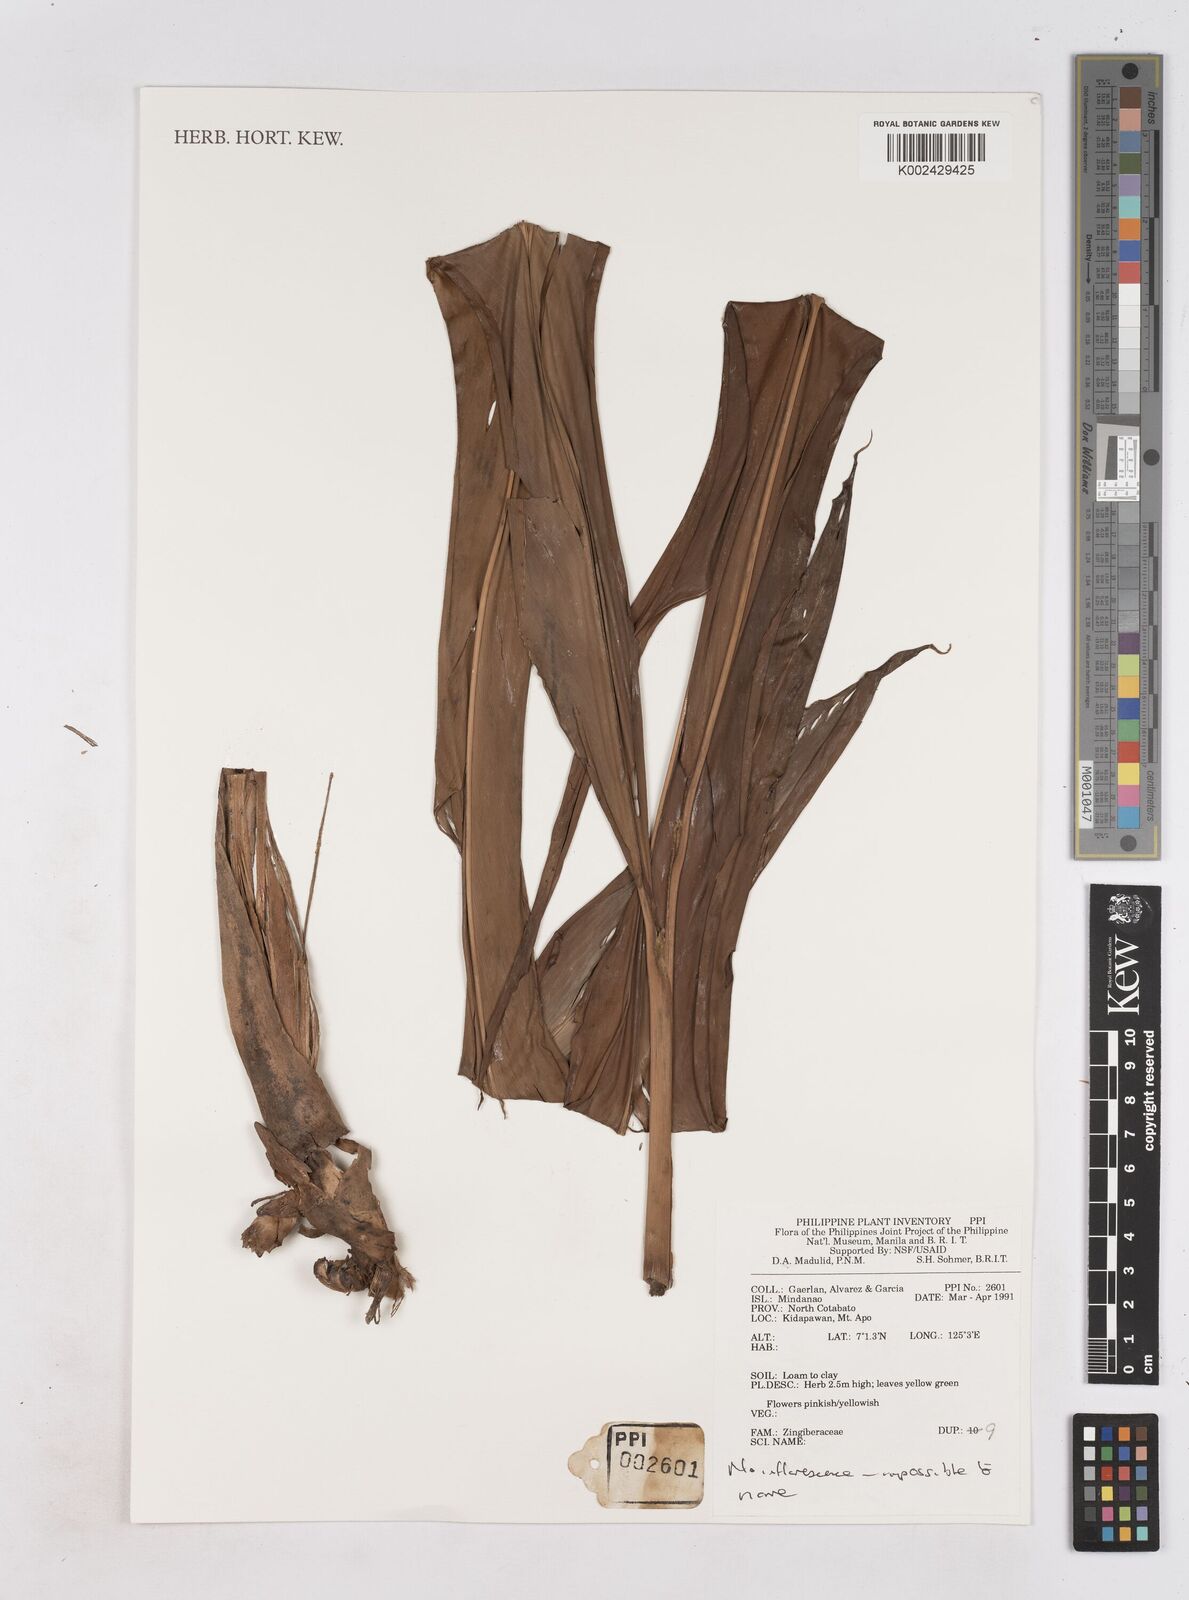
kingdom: Plantae
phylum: Tracheophyta
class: Liliopsida
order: Zingiberales
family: Zingiberaceae
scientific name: Zingiberaceae
